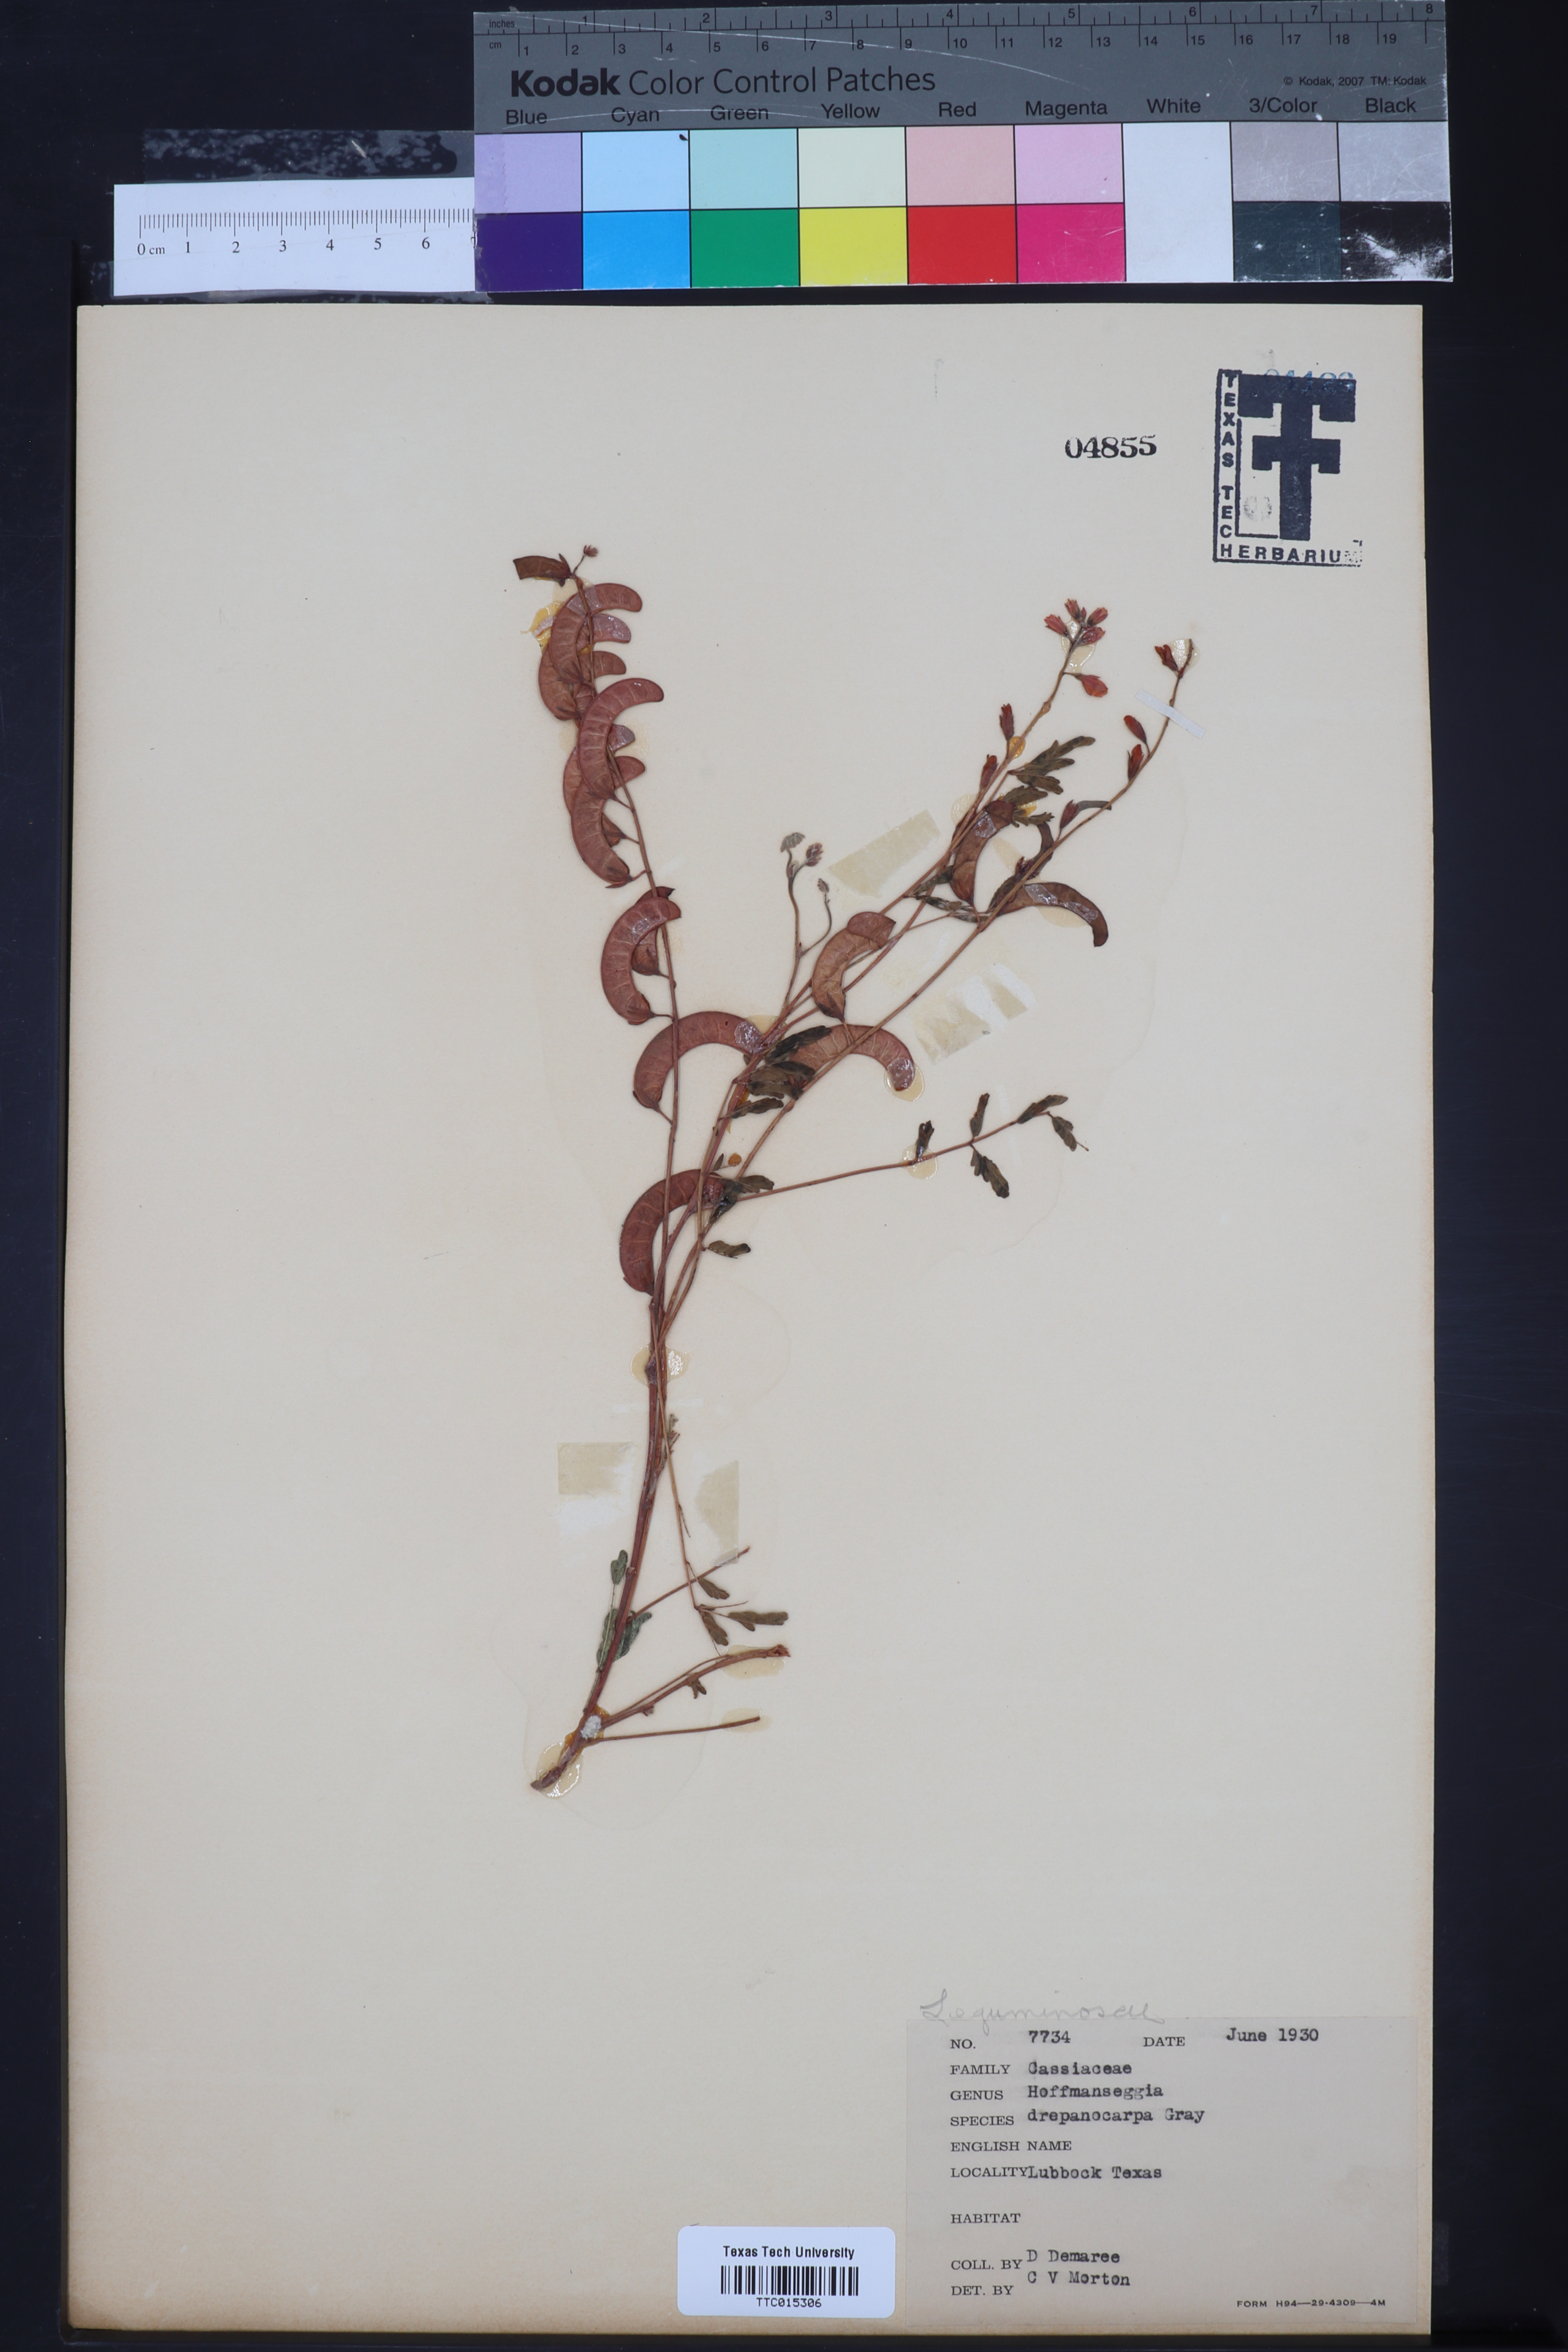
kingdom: Plantae
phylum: Tracheophyta
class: Magnoliopsida
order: Fabales
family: Fabaceae
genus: Hoffmannseggia
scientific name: Hoffmannseggia drepanocarpa
